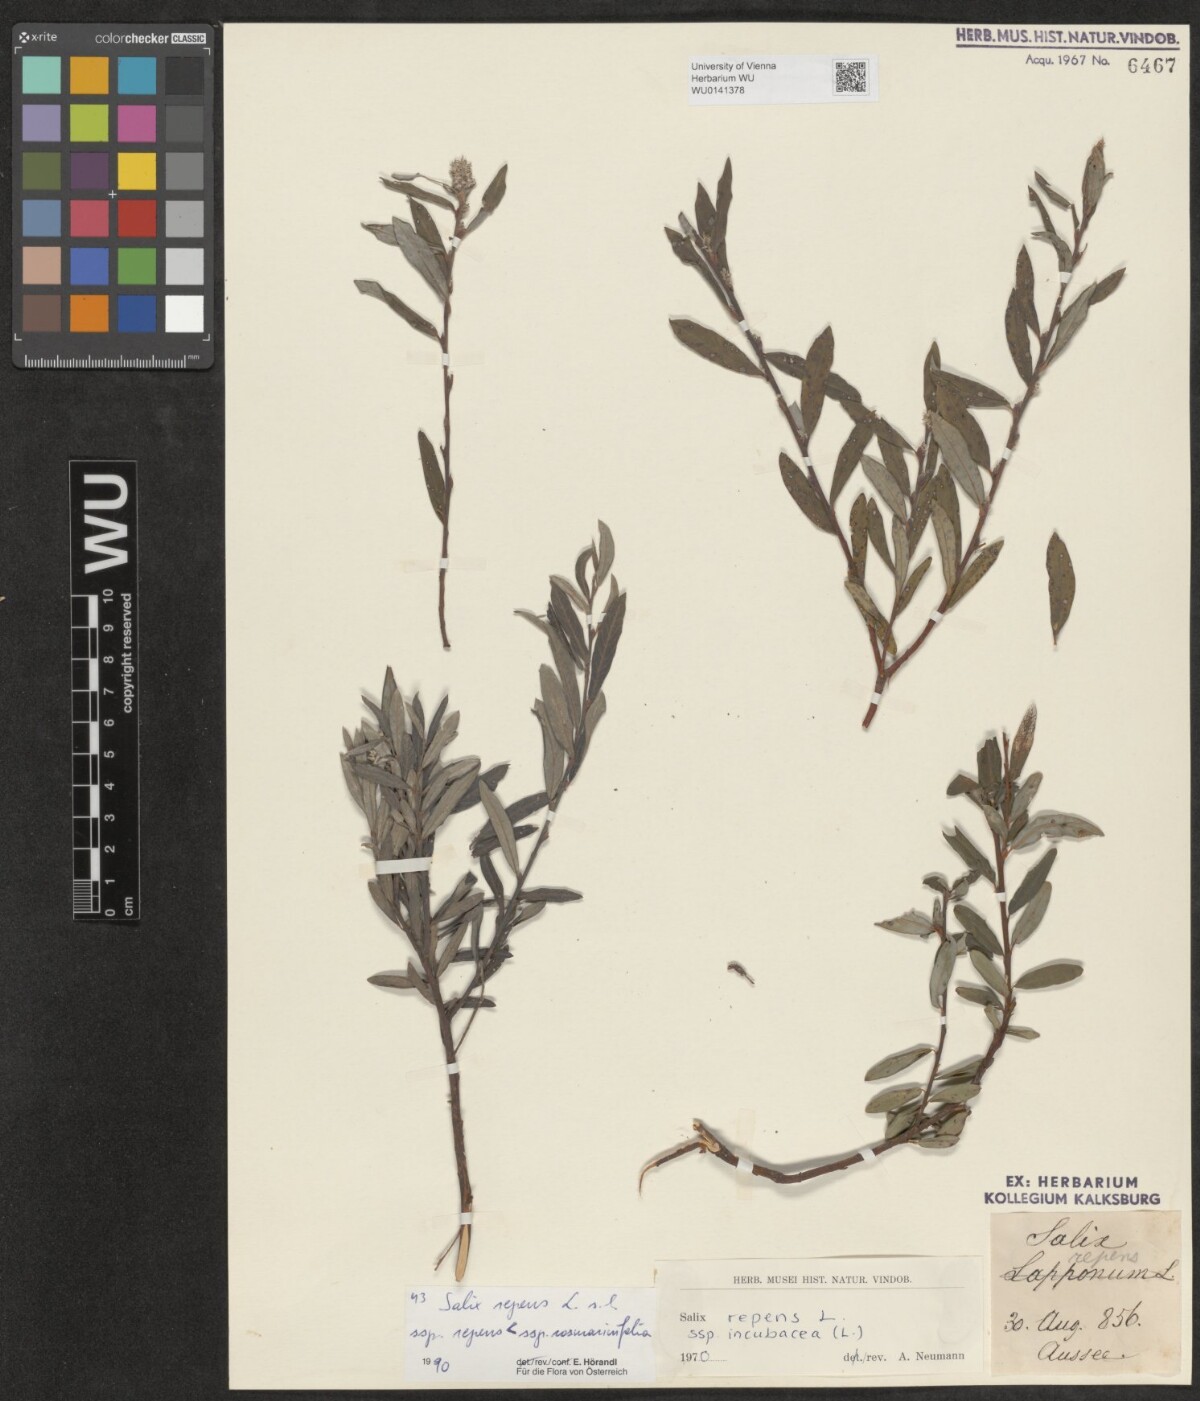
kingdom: Plantae
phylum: Tracheophyta
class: Magnoliopsida
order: Malpighiales
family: Salicaceae
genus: Salix
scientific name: Salix repens
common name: Creeping willow
